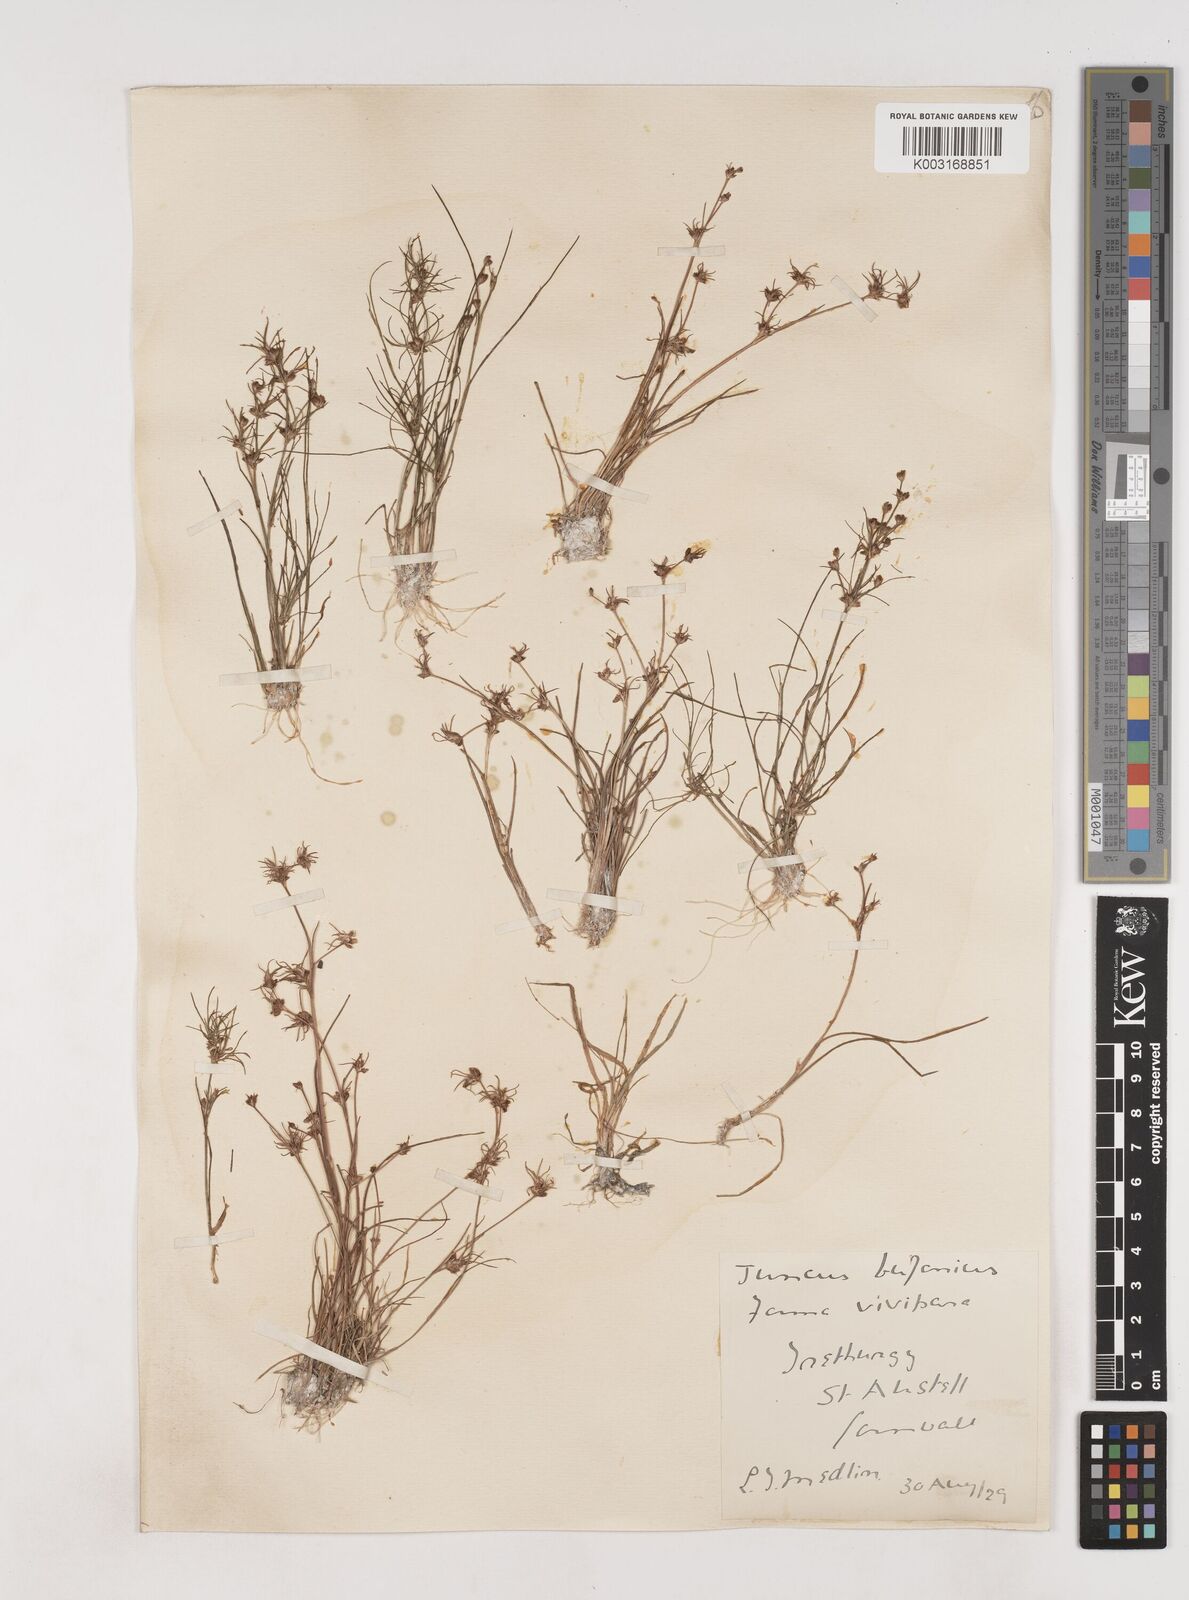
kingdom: Plantae
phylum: Tracheophyta
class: Liliopsida
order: Poales
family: Juncaceae
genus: Juncus
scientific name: Juncus bulbosus
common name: Bulbous rush
